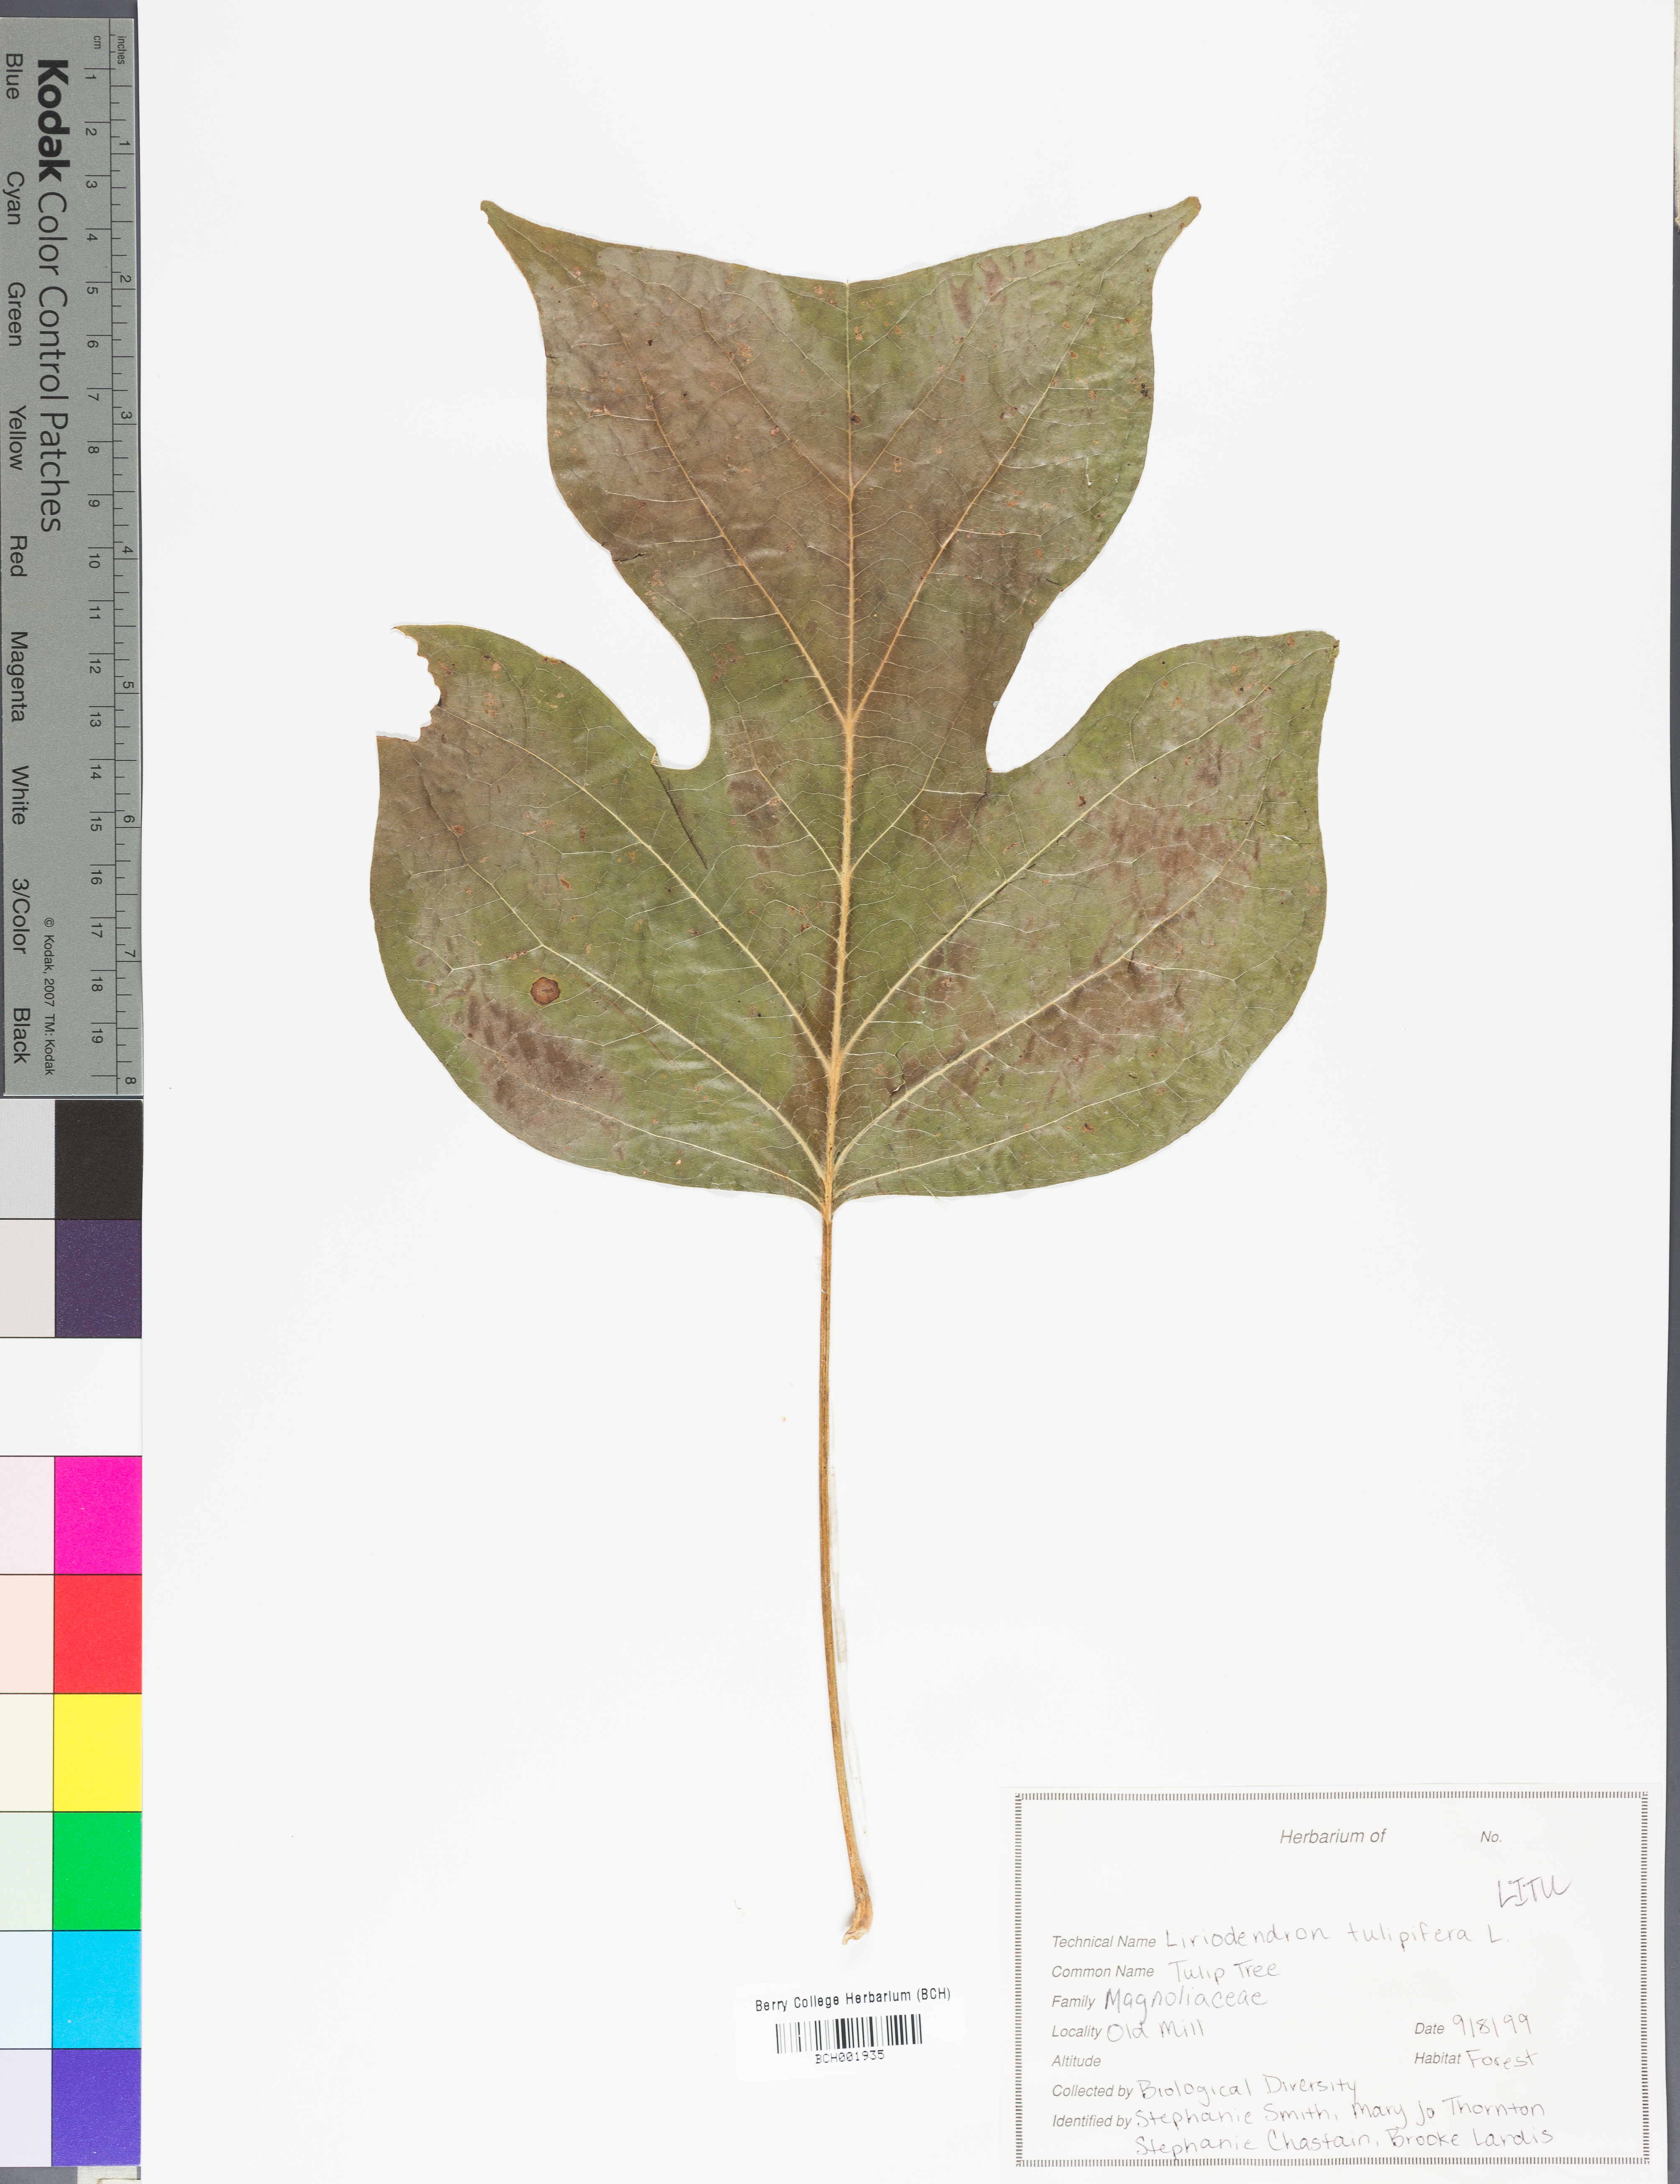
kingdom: Plantae
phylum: Tracheophyta
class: Magnoliopsida
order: Magnoliales
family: Magnoliaceae
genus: Liriodendron
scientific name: Liriodendron tulipifera
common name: Tulip tree
